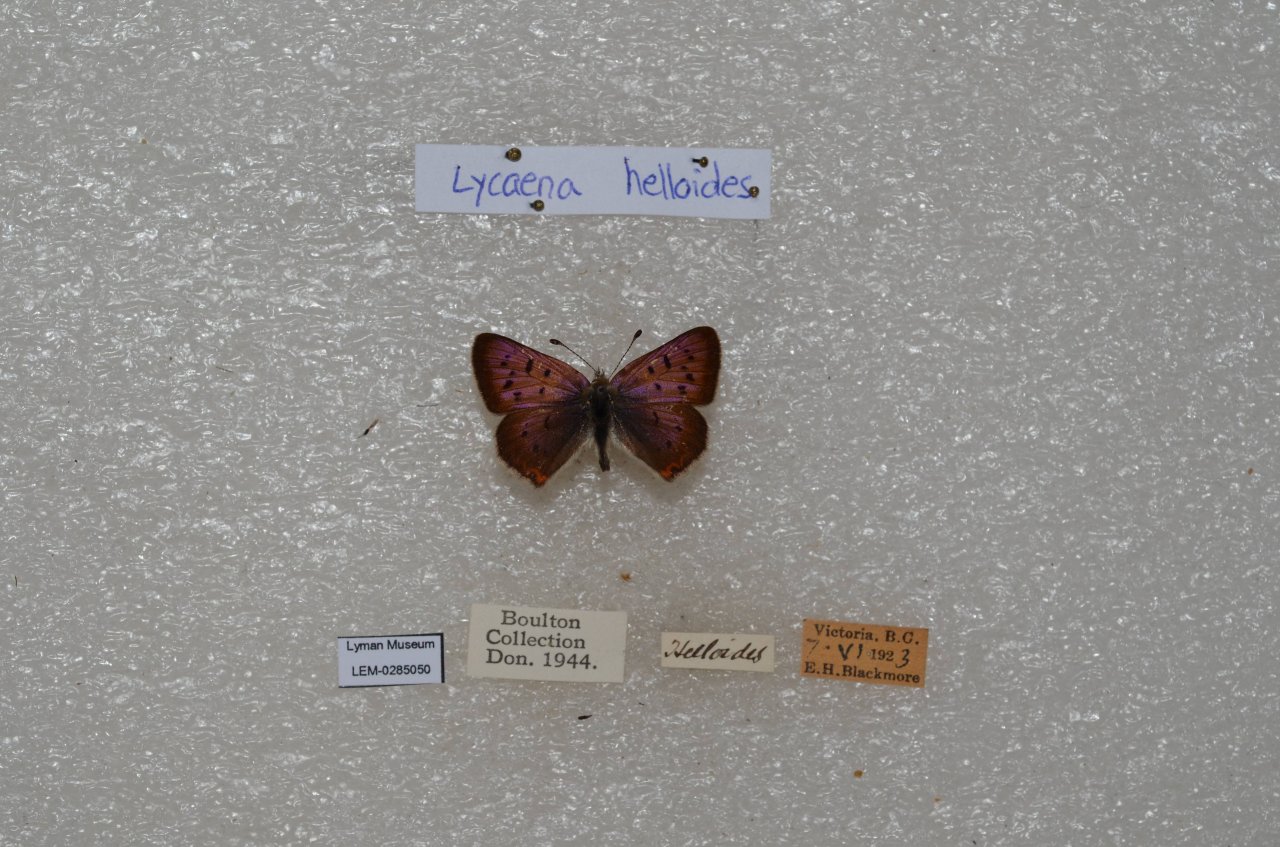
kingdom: Animalia
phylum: Arthropoda
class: Insecta
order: Lepidoptera
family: Sesiidae
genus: Sesia
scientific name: Sesia Lycaena helloides
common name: Purplish Copper
